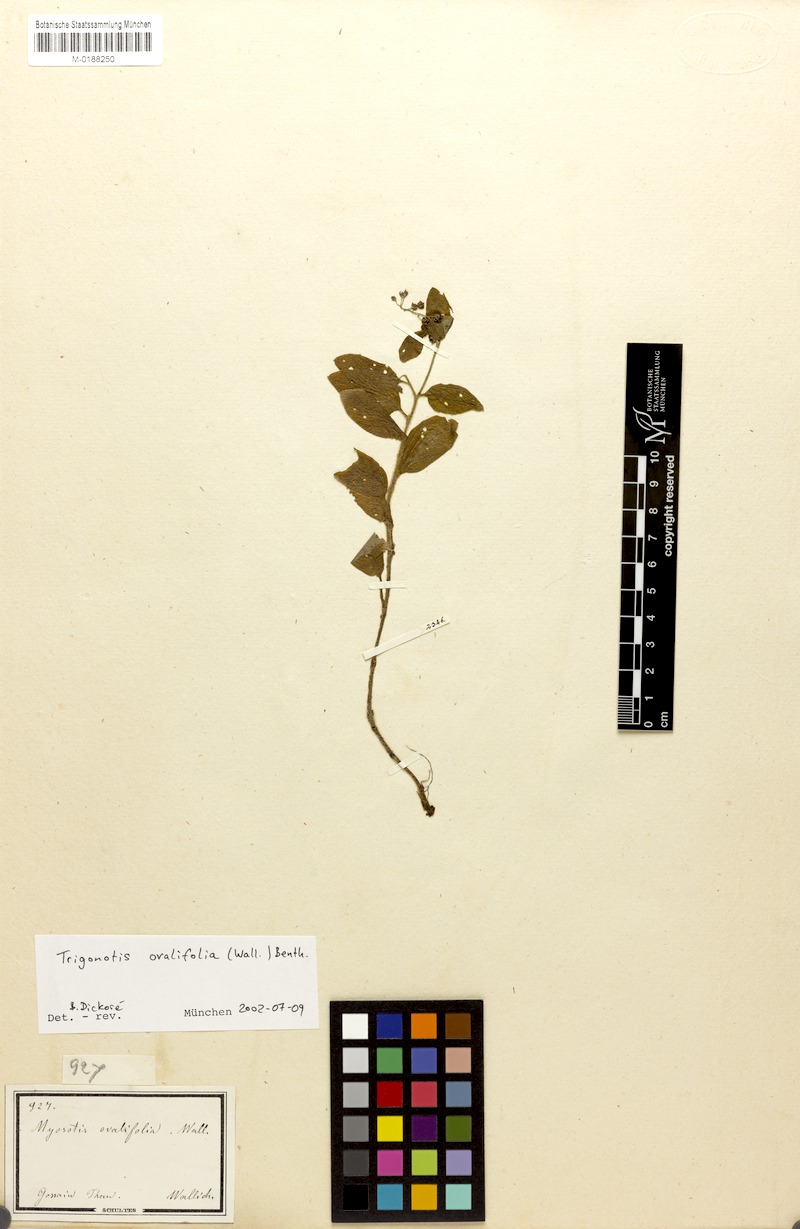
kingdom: Plantae
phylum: Tracheophyta
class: Magnoliopsida
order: Boraginales
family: Boraginaceae
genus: Trigonotis
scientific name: Trigonotis ovalifolia
